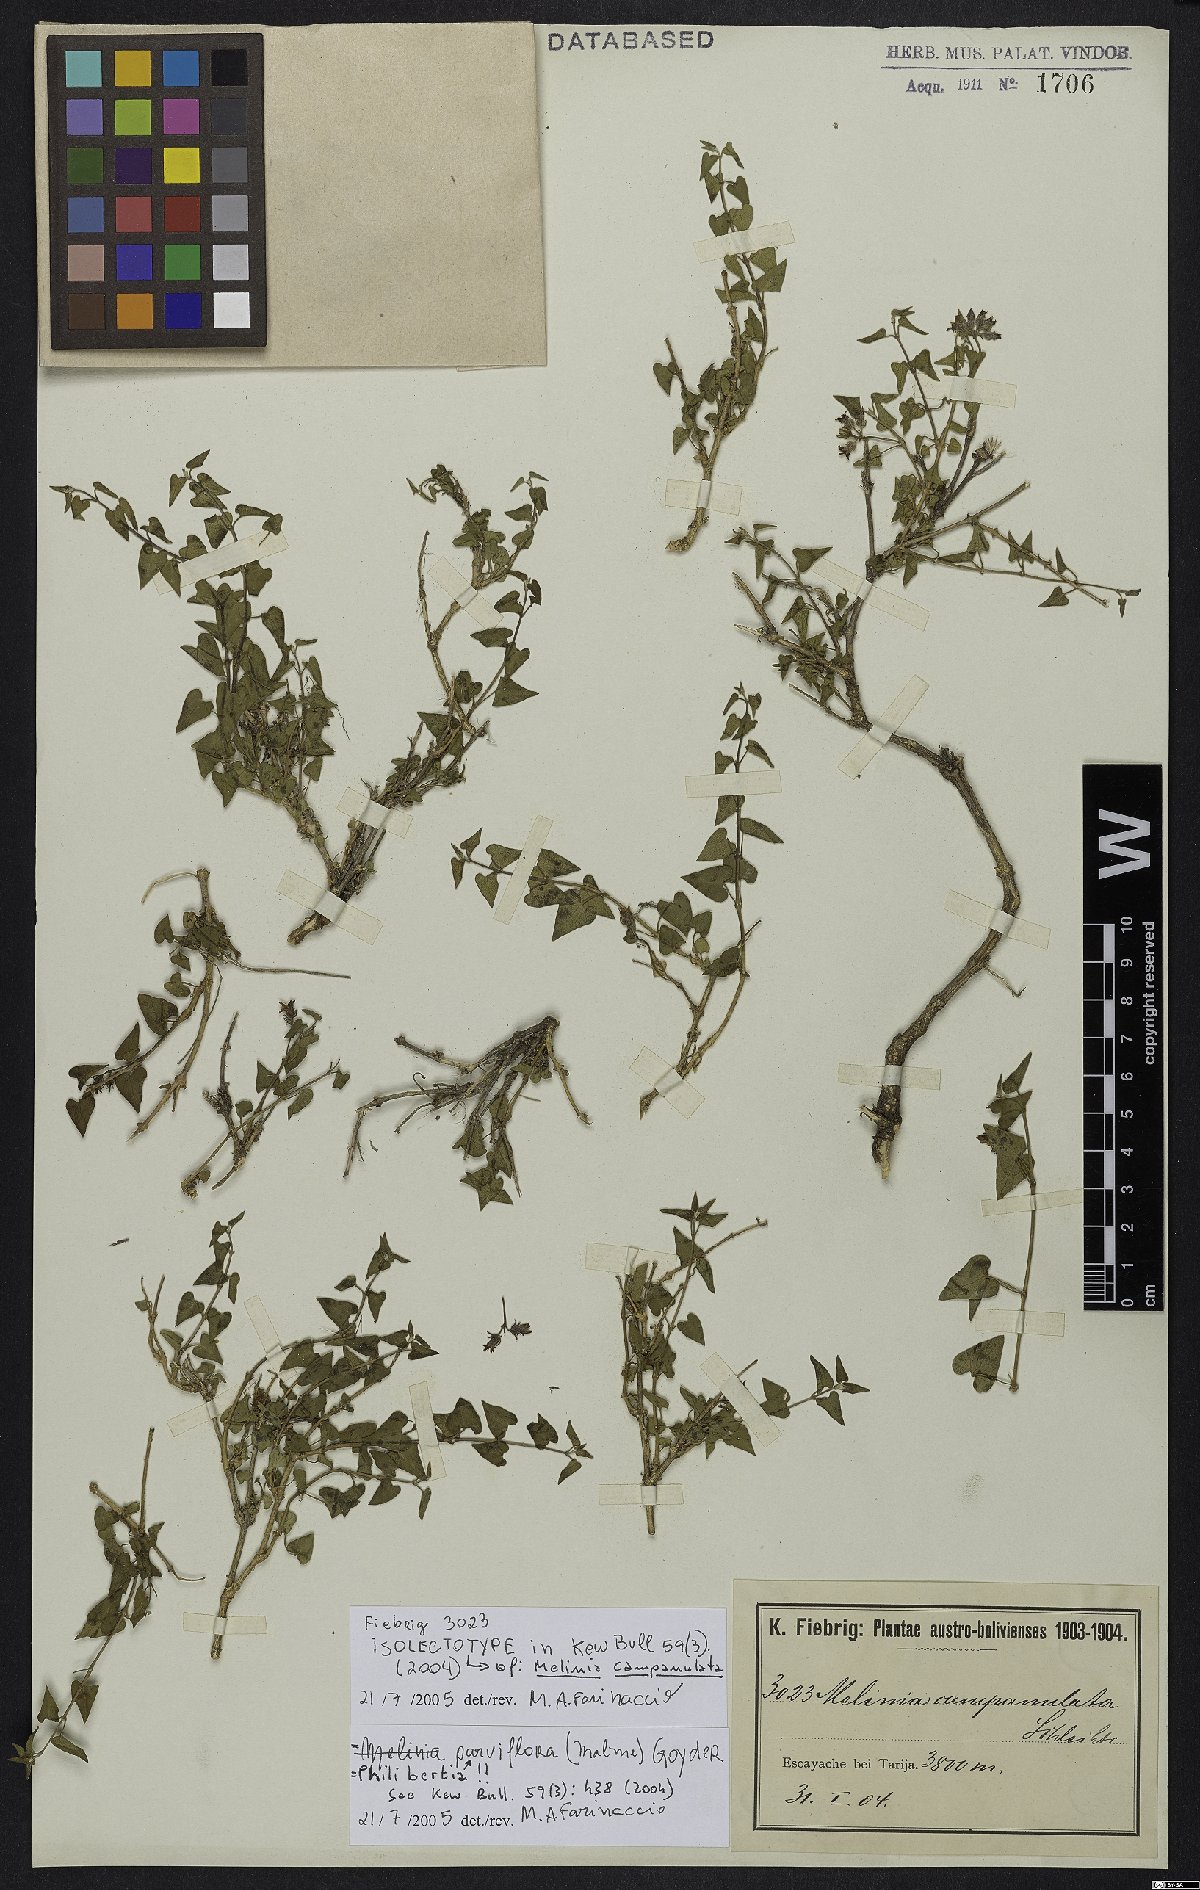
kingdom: Plantae
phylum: Tracheophyta
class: Magnoliopsida
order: Gentianales
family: Apocynaceae
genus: Philibertia
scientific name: Philibertia parviflora
